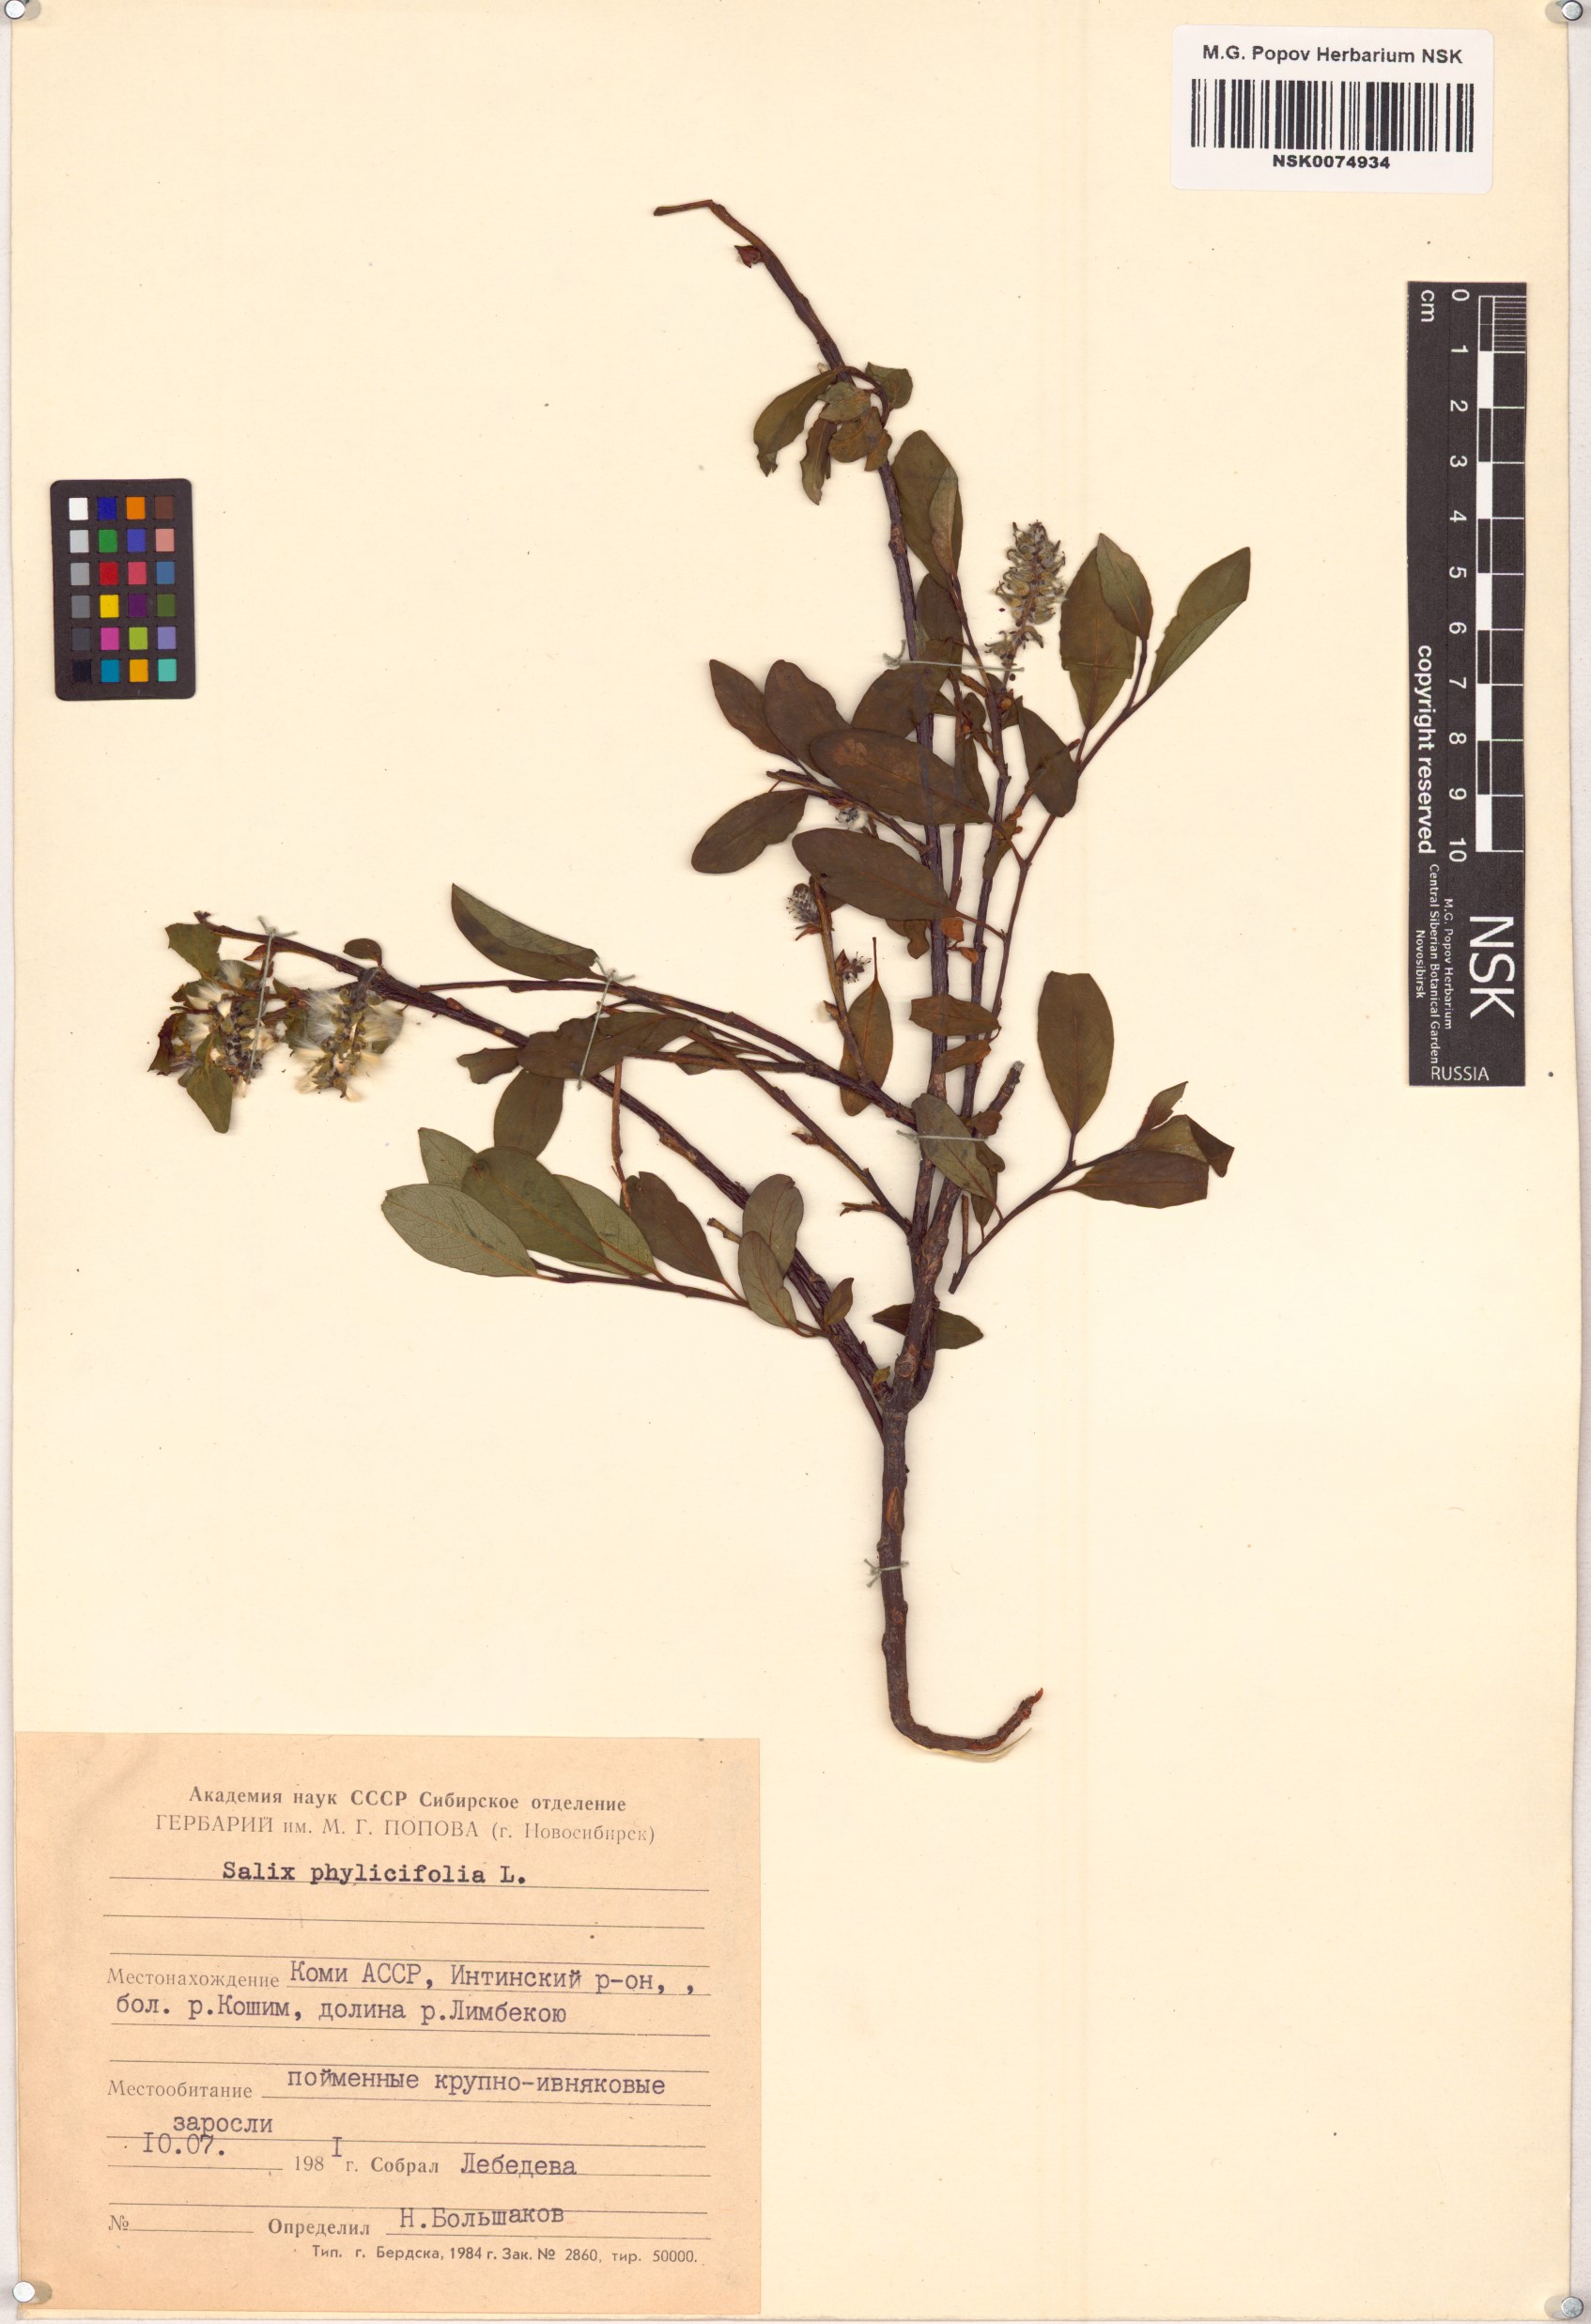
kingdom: Plantae
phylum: Tracheophyta
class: Magnoliopsida
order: Malpighiales
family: Salicaceae
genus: Salix
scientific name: Salix phylicifolia
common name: Tea-leaved willow
